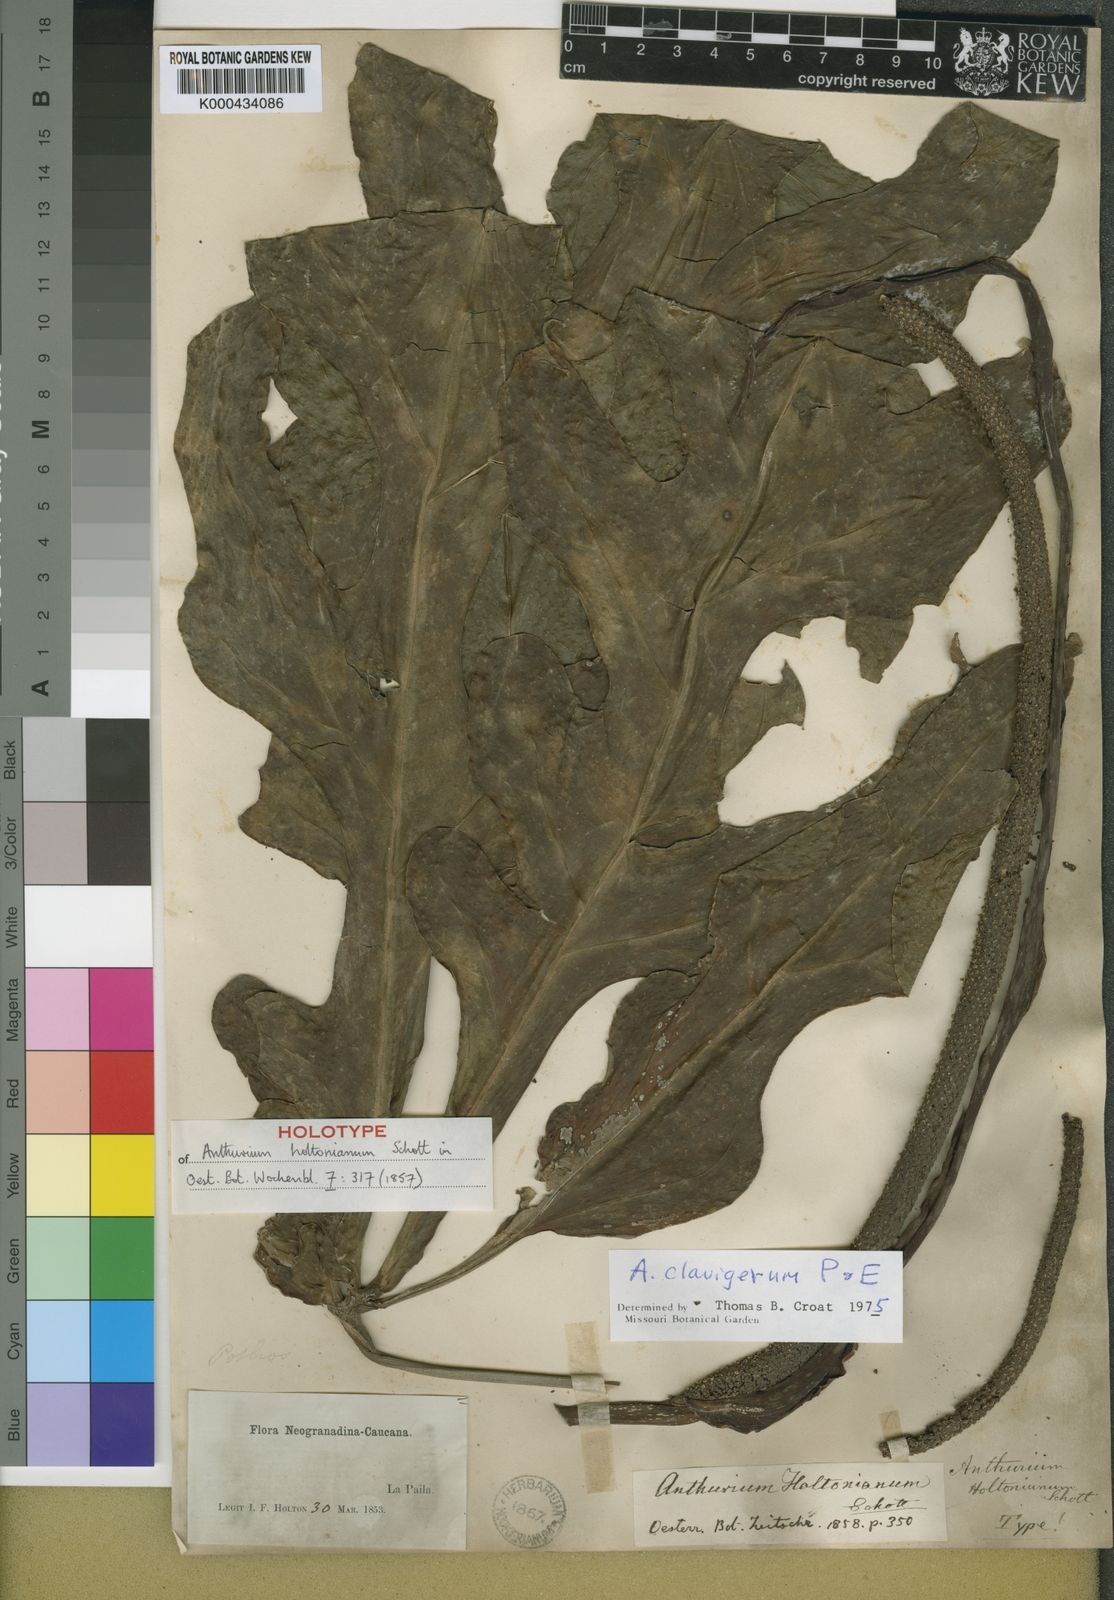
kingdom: Plantae
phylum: Tracheophyta
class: Liliopsida
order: Alismatales
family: Araceae
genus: Anthurium
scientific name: Anthurium
